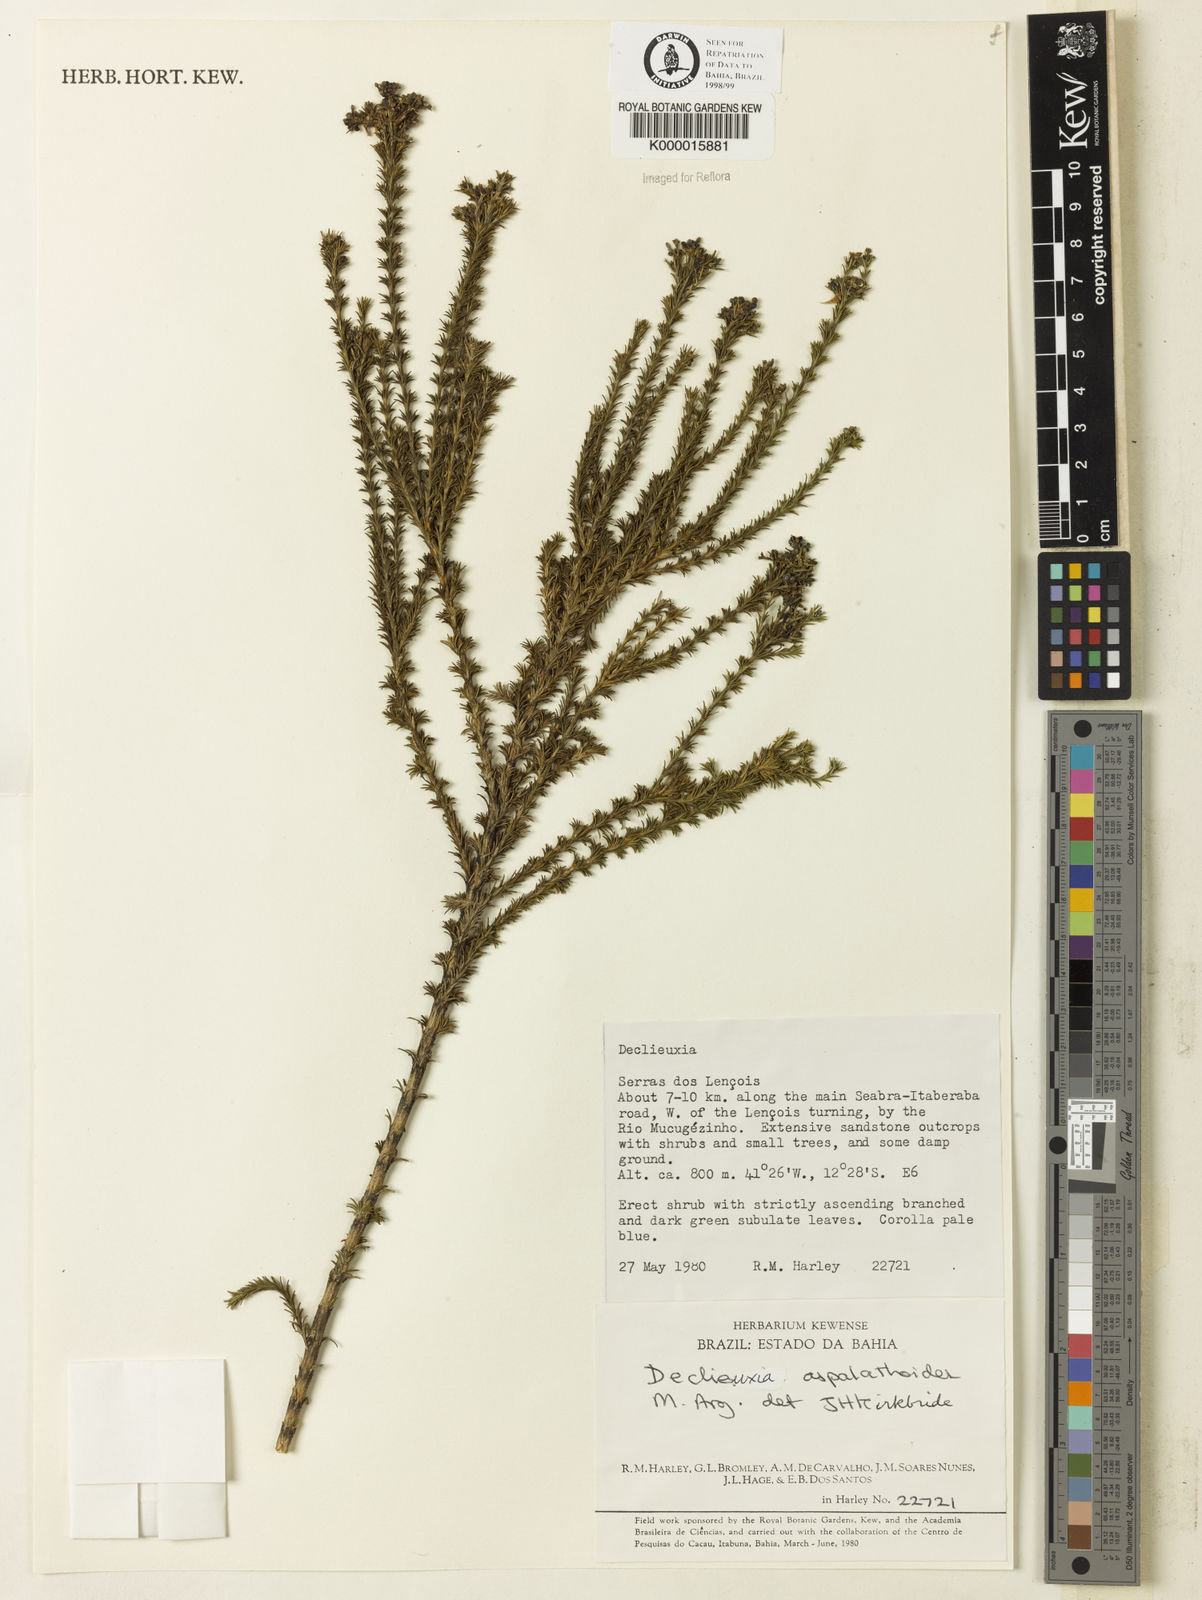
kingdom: Plantae
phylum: Tracheophyta
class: Magnoliopsida
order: Gentianales
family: Rubiaceae
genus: Declieuxia
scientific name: Declieuxia aspalathoides
